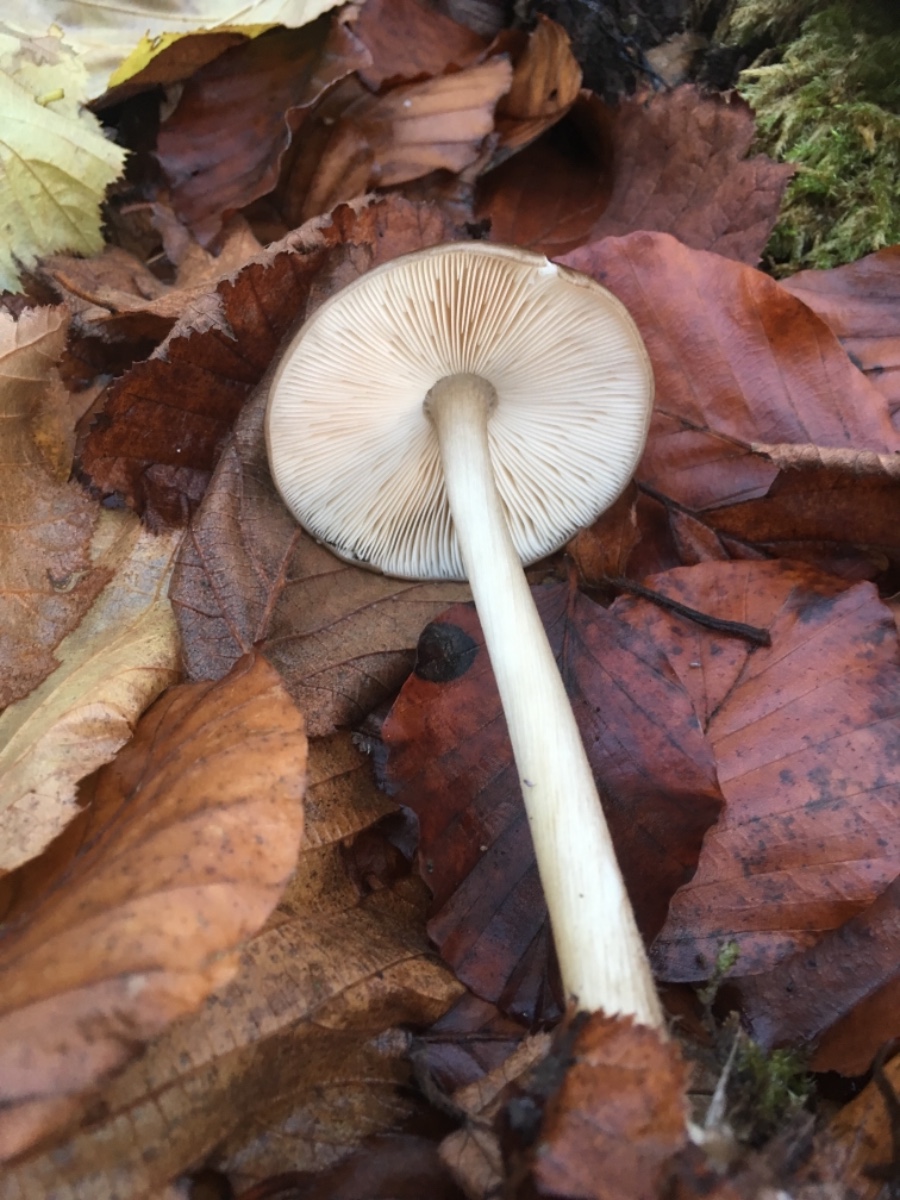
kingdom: Fungi
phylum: Basidiomycota
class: Agaricomycetes
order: Agaricales
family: Pluteaceae
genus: Pluteus
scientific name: Pluteus cervinus
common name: sodfarvet skærmhat
